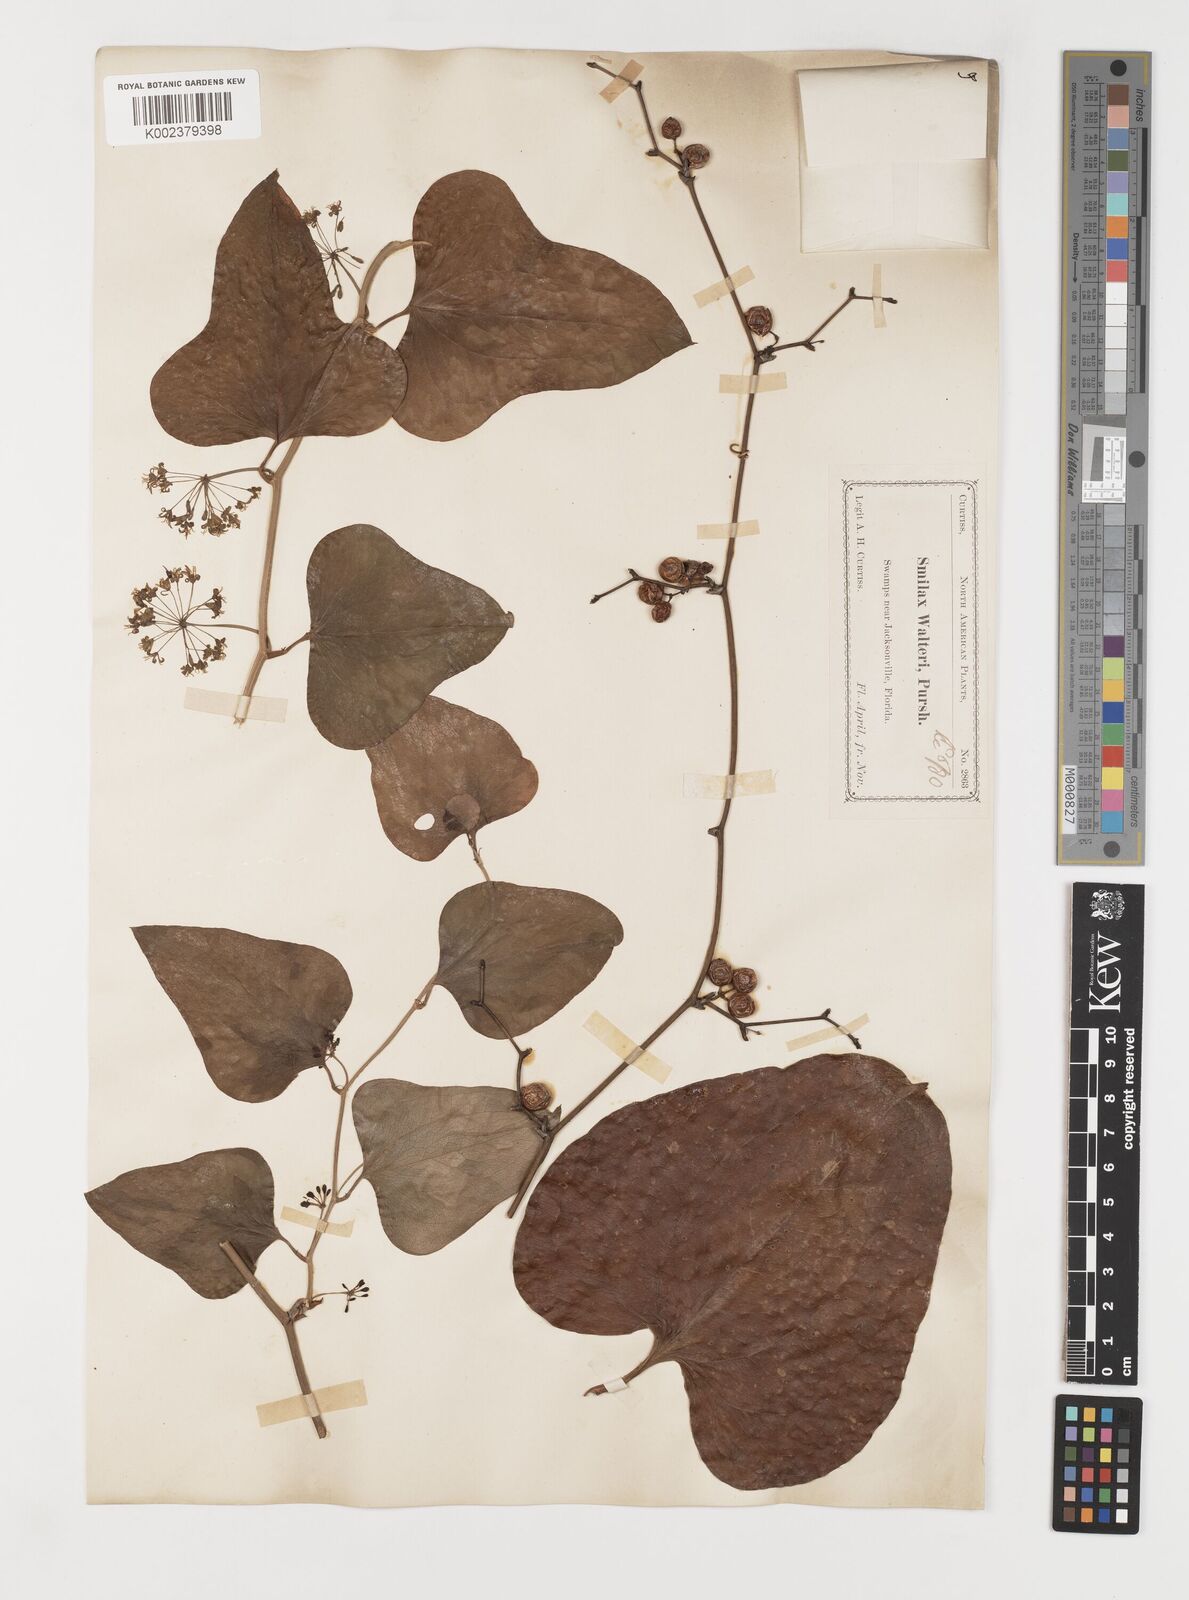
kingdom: Plantae
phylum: Tracheophyta
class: Liliopsida
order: Liliales
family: Smilacaceae
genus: Smilax
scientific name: Smilax walteri
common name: Coral greenbrier
